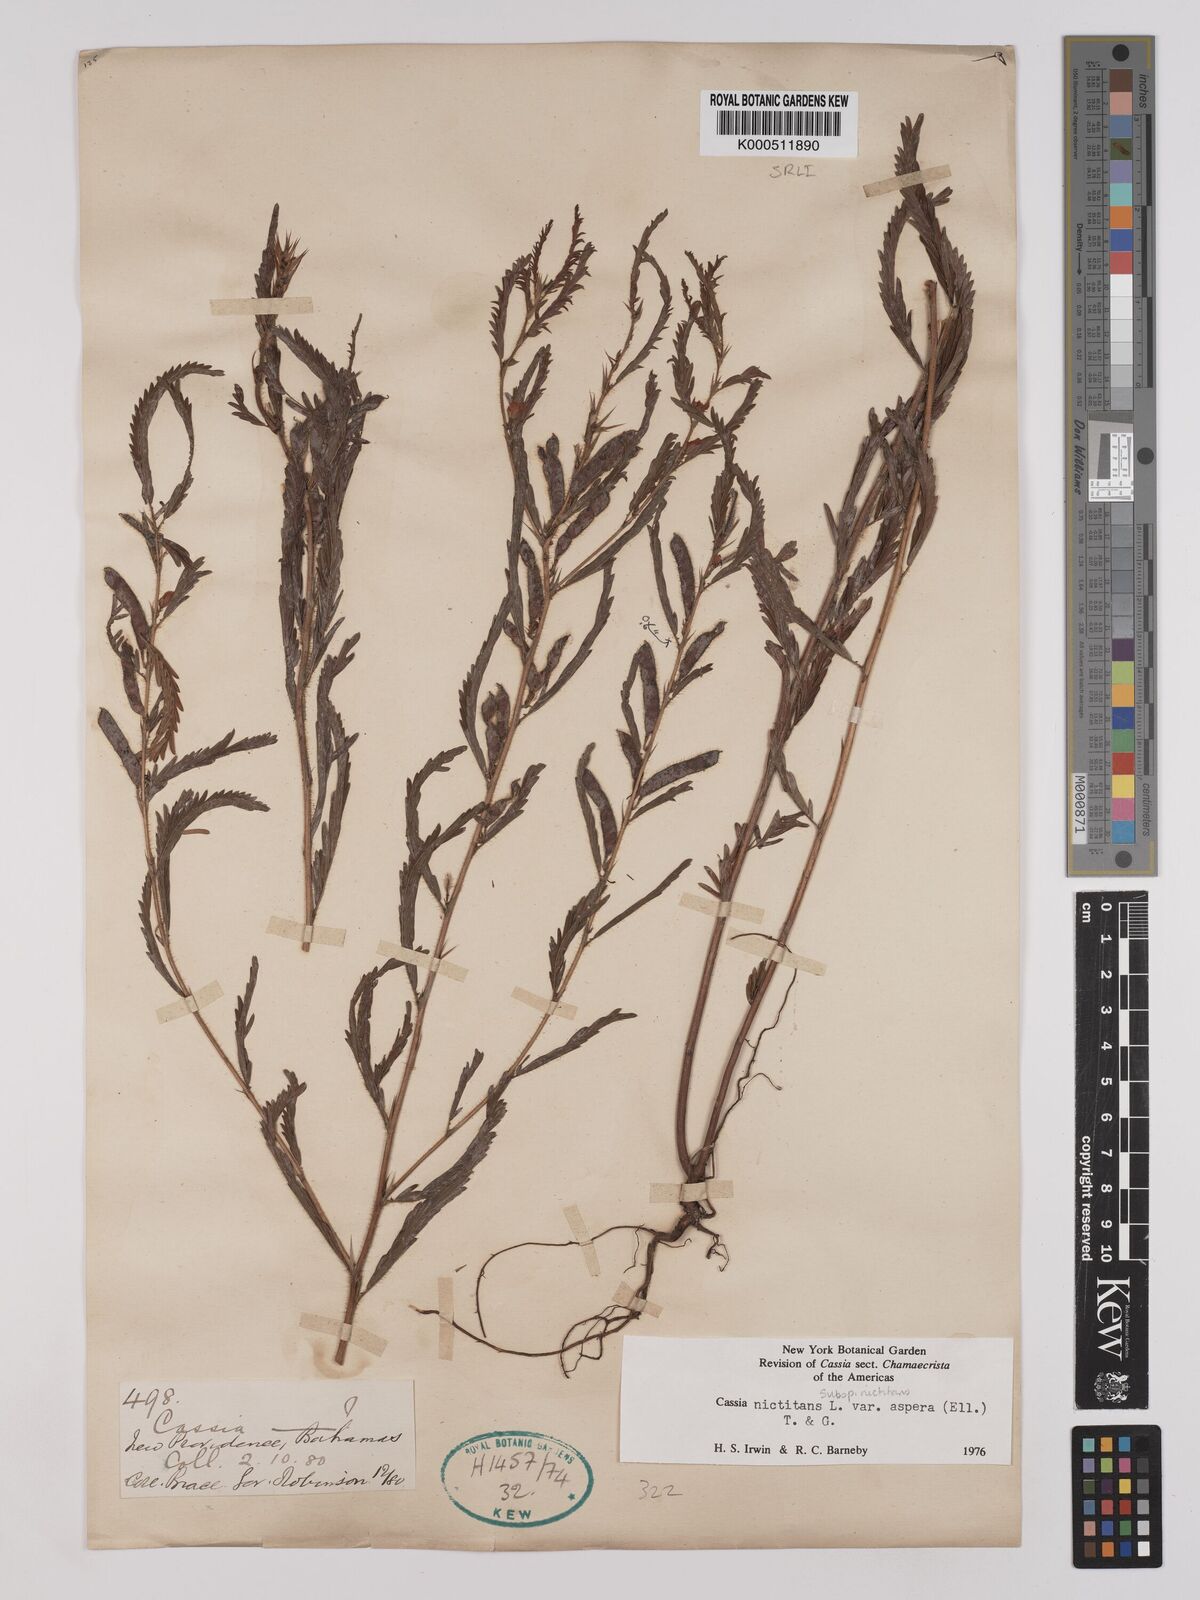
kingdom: Plantae
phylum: Tracheophyta
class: Magnoliopsida
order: Fabales
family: Fabaceae
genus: Chamaecrista
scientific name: Chamaecrista nictitans
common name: Sensitive cassia
